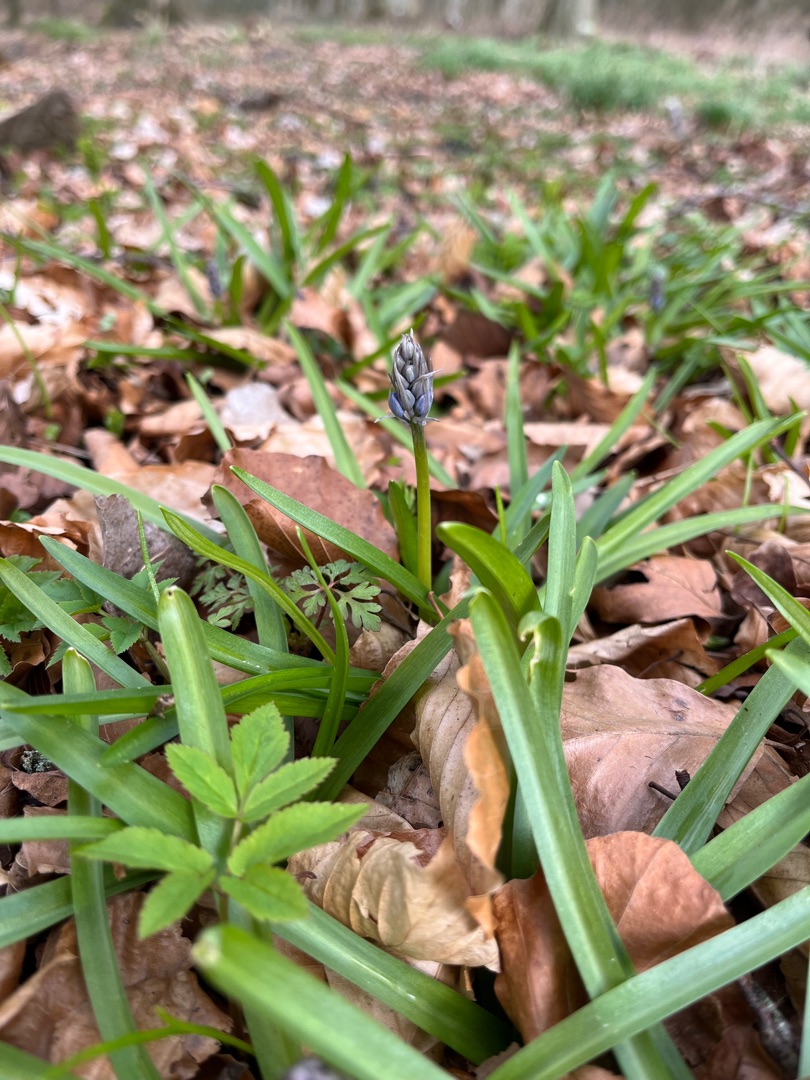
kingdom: Plantae
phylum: Tracheophyta
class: Liliopsida
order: Asparagales
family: Asparagaceae
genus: Hyacinthoides
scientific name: Hyacinthoides
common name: Skilla (Hyacinthoides-slægten)
